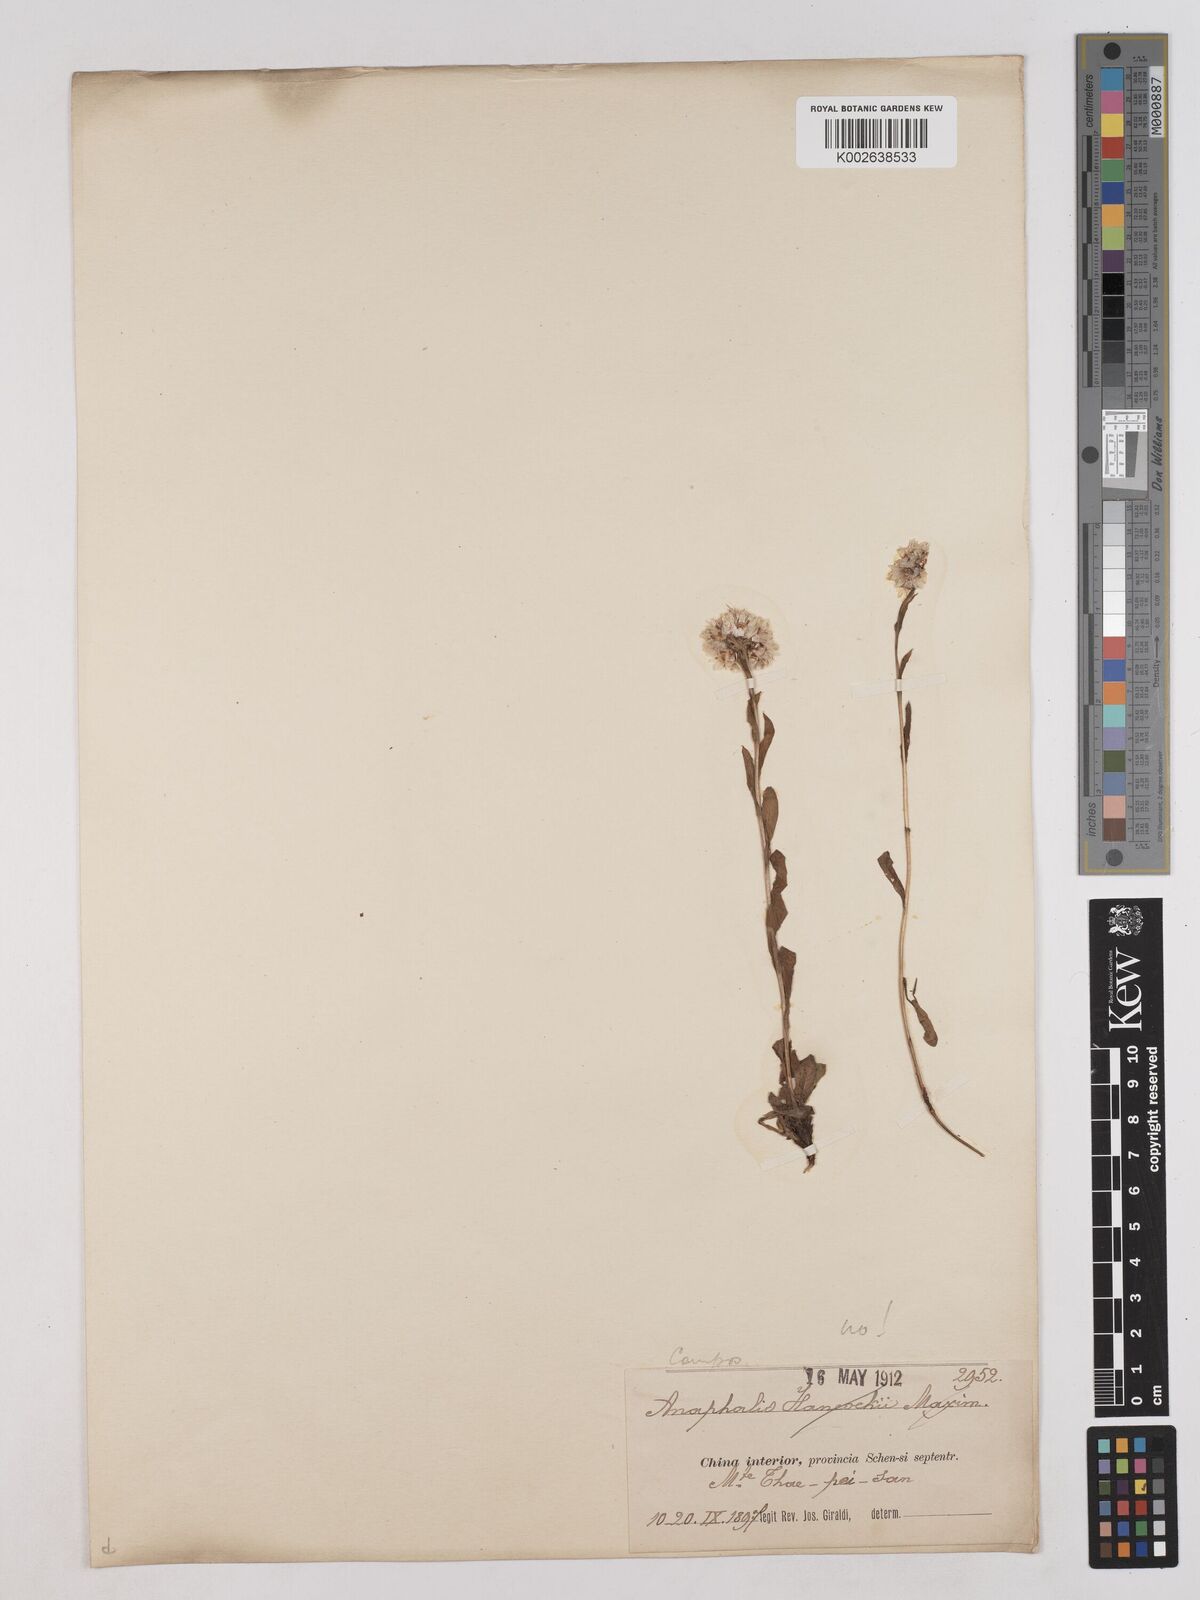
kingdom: Plantae
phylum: Tracheophyta
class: Magnoliopsida
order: Asterales
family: Asteraceae
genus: Anaphalis
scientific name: Anaphalis
